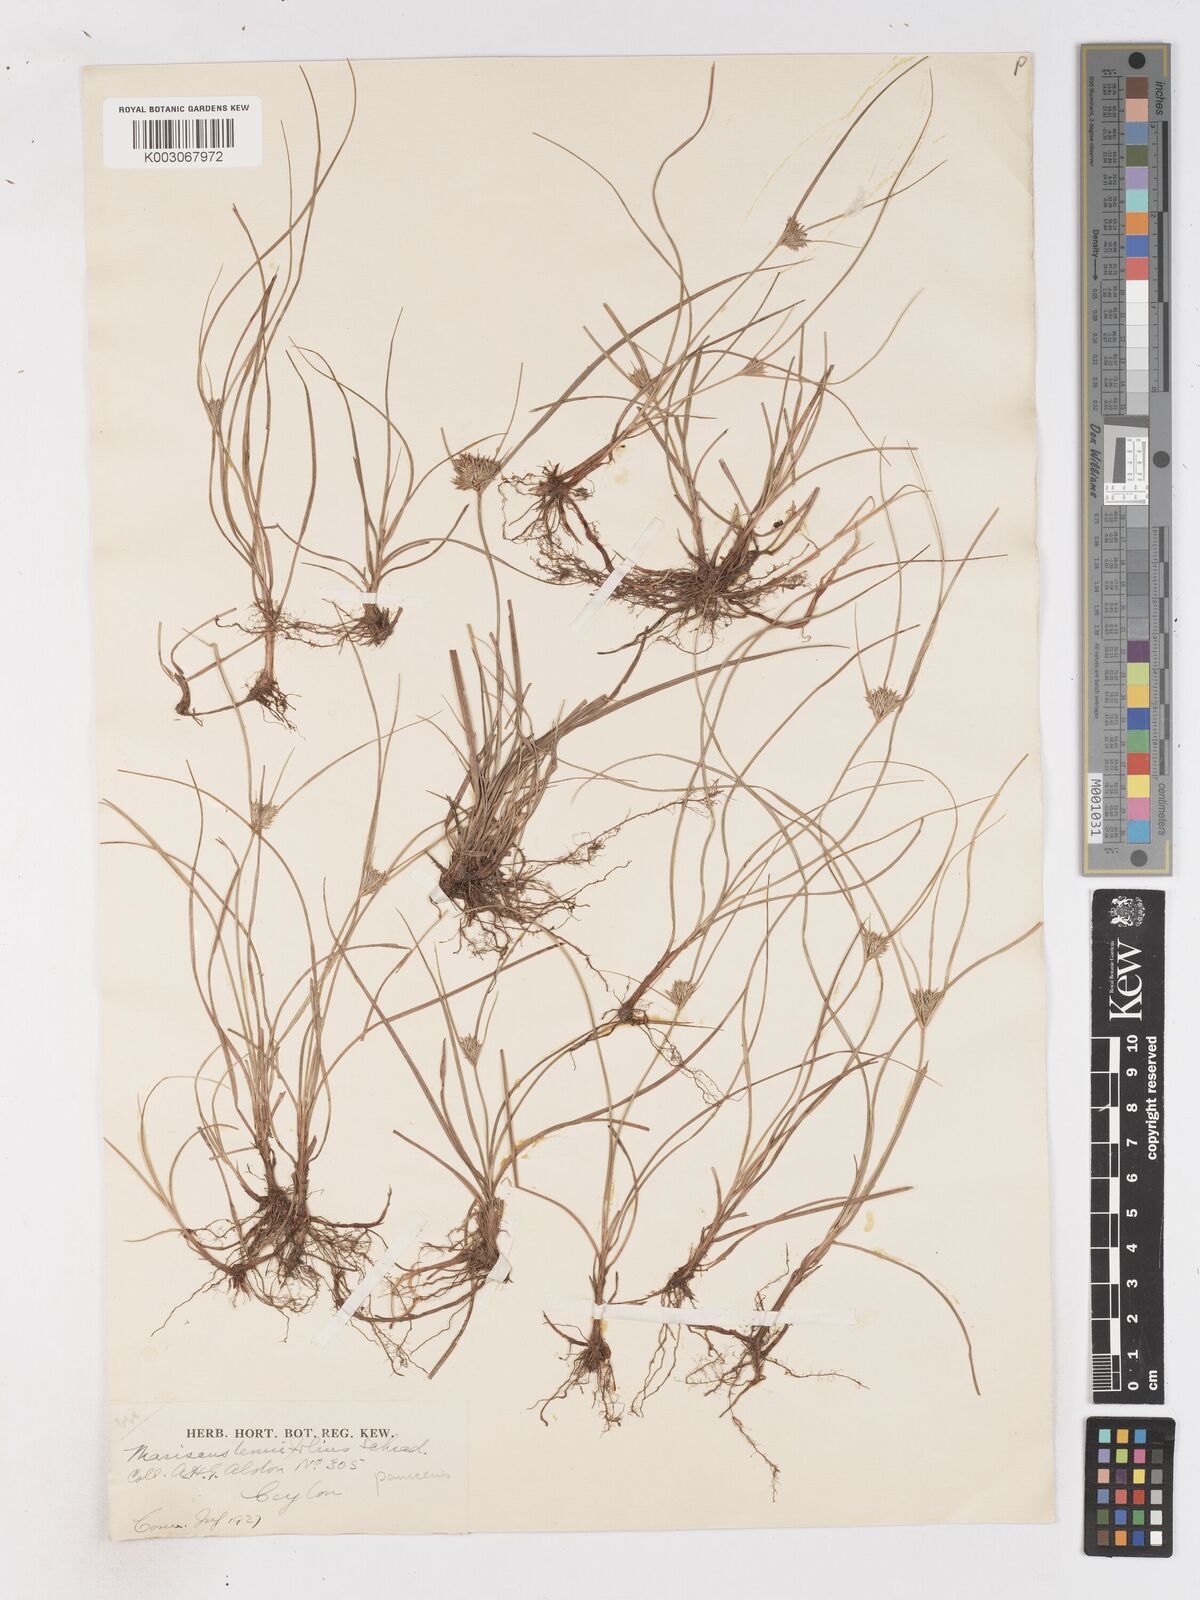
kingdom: Plantae
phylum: Tracheophyta
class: Liliopsida
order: Poales
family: Cyperaceae
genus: Cyperus
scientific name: Cyperus paniceus
